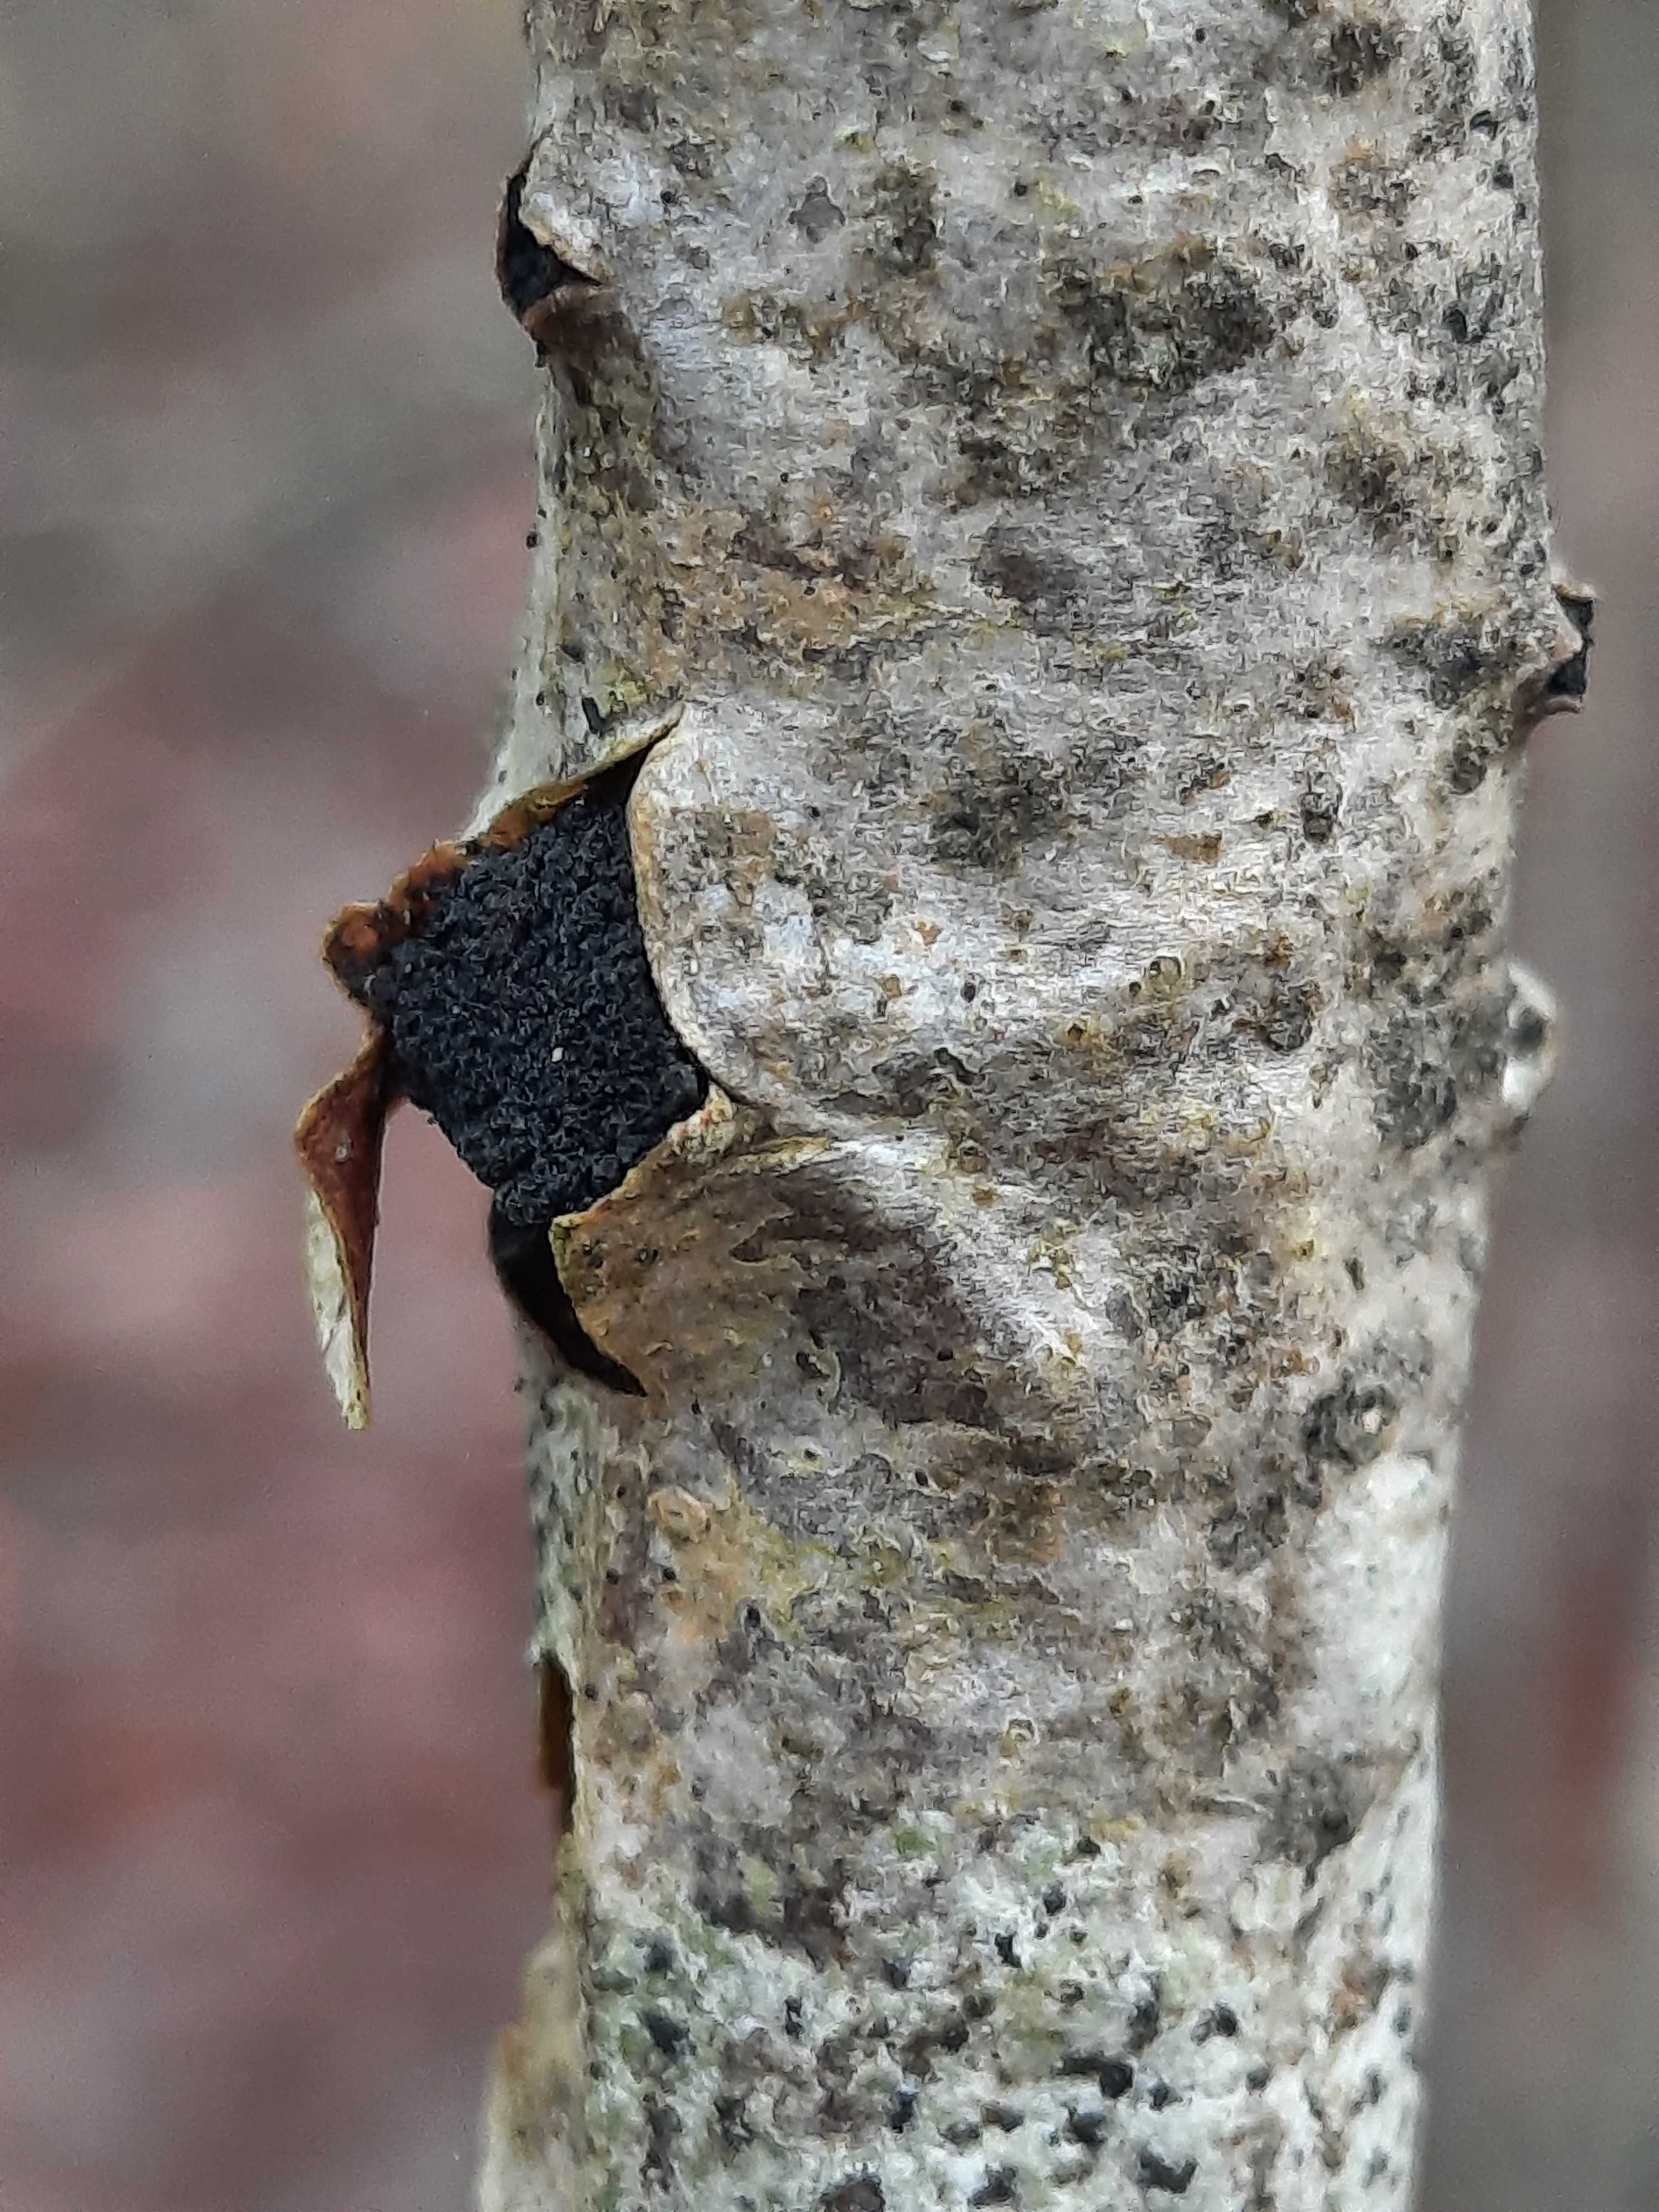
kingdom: Fungi
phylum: Ascomycota
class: Sordariomycetes
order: Xylariales
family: Diatrypaceae
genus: Eutypella
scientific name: Eutypella sorbi
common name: rønne-kulskorpe
